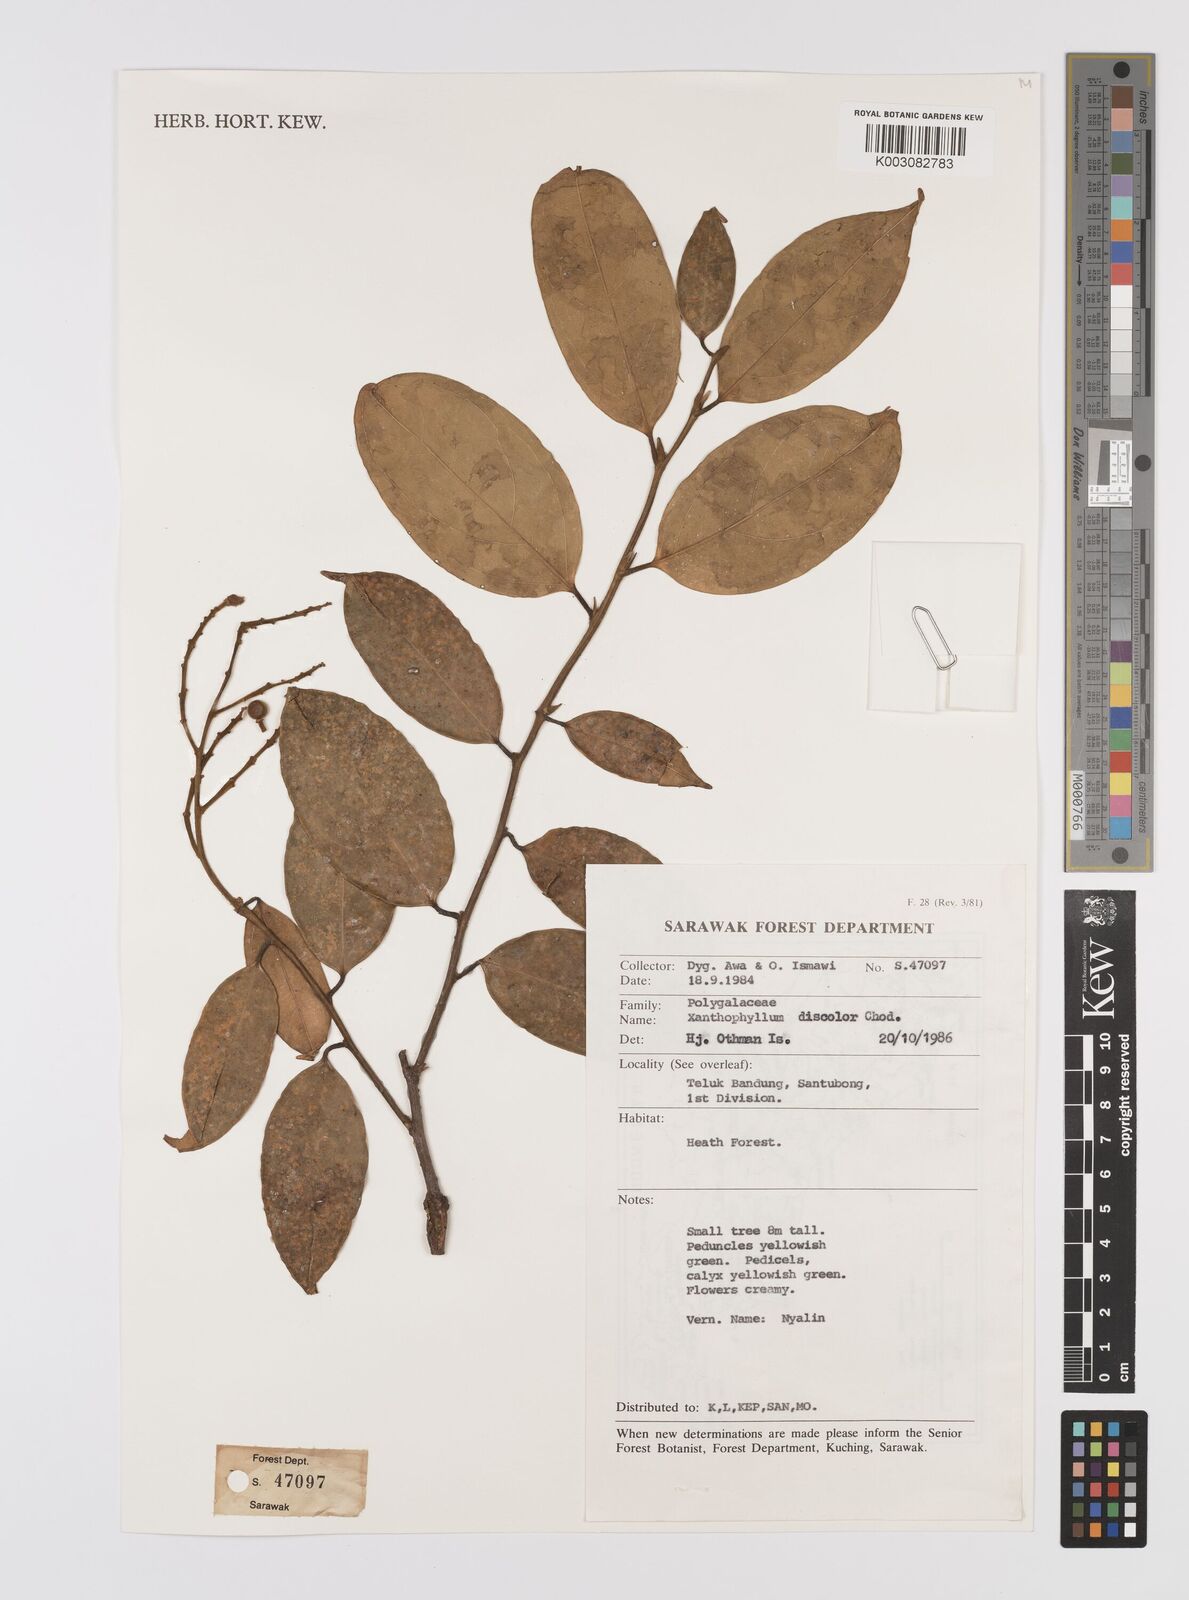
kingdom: Plantae
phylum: Tracheophyta
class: Magnoliopsida
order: Fabales
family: Polygalaceae
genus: Xanthophyllum
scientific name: Xanthophyllum discolor
